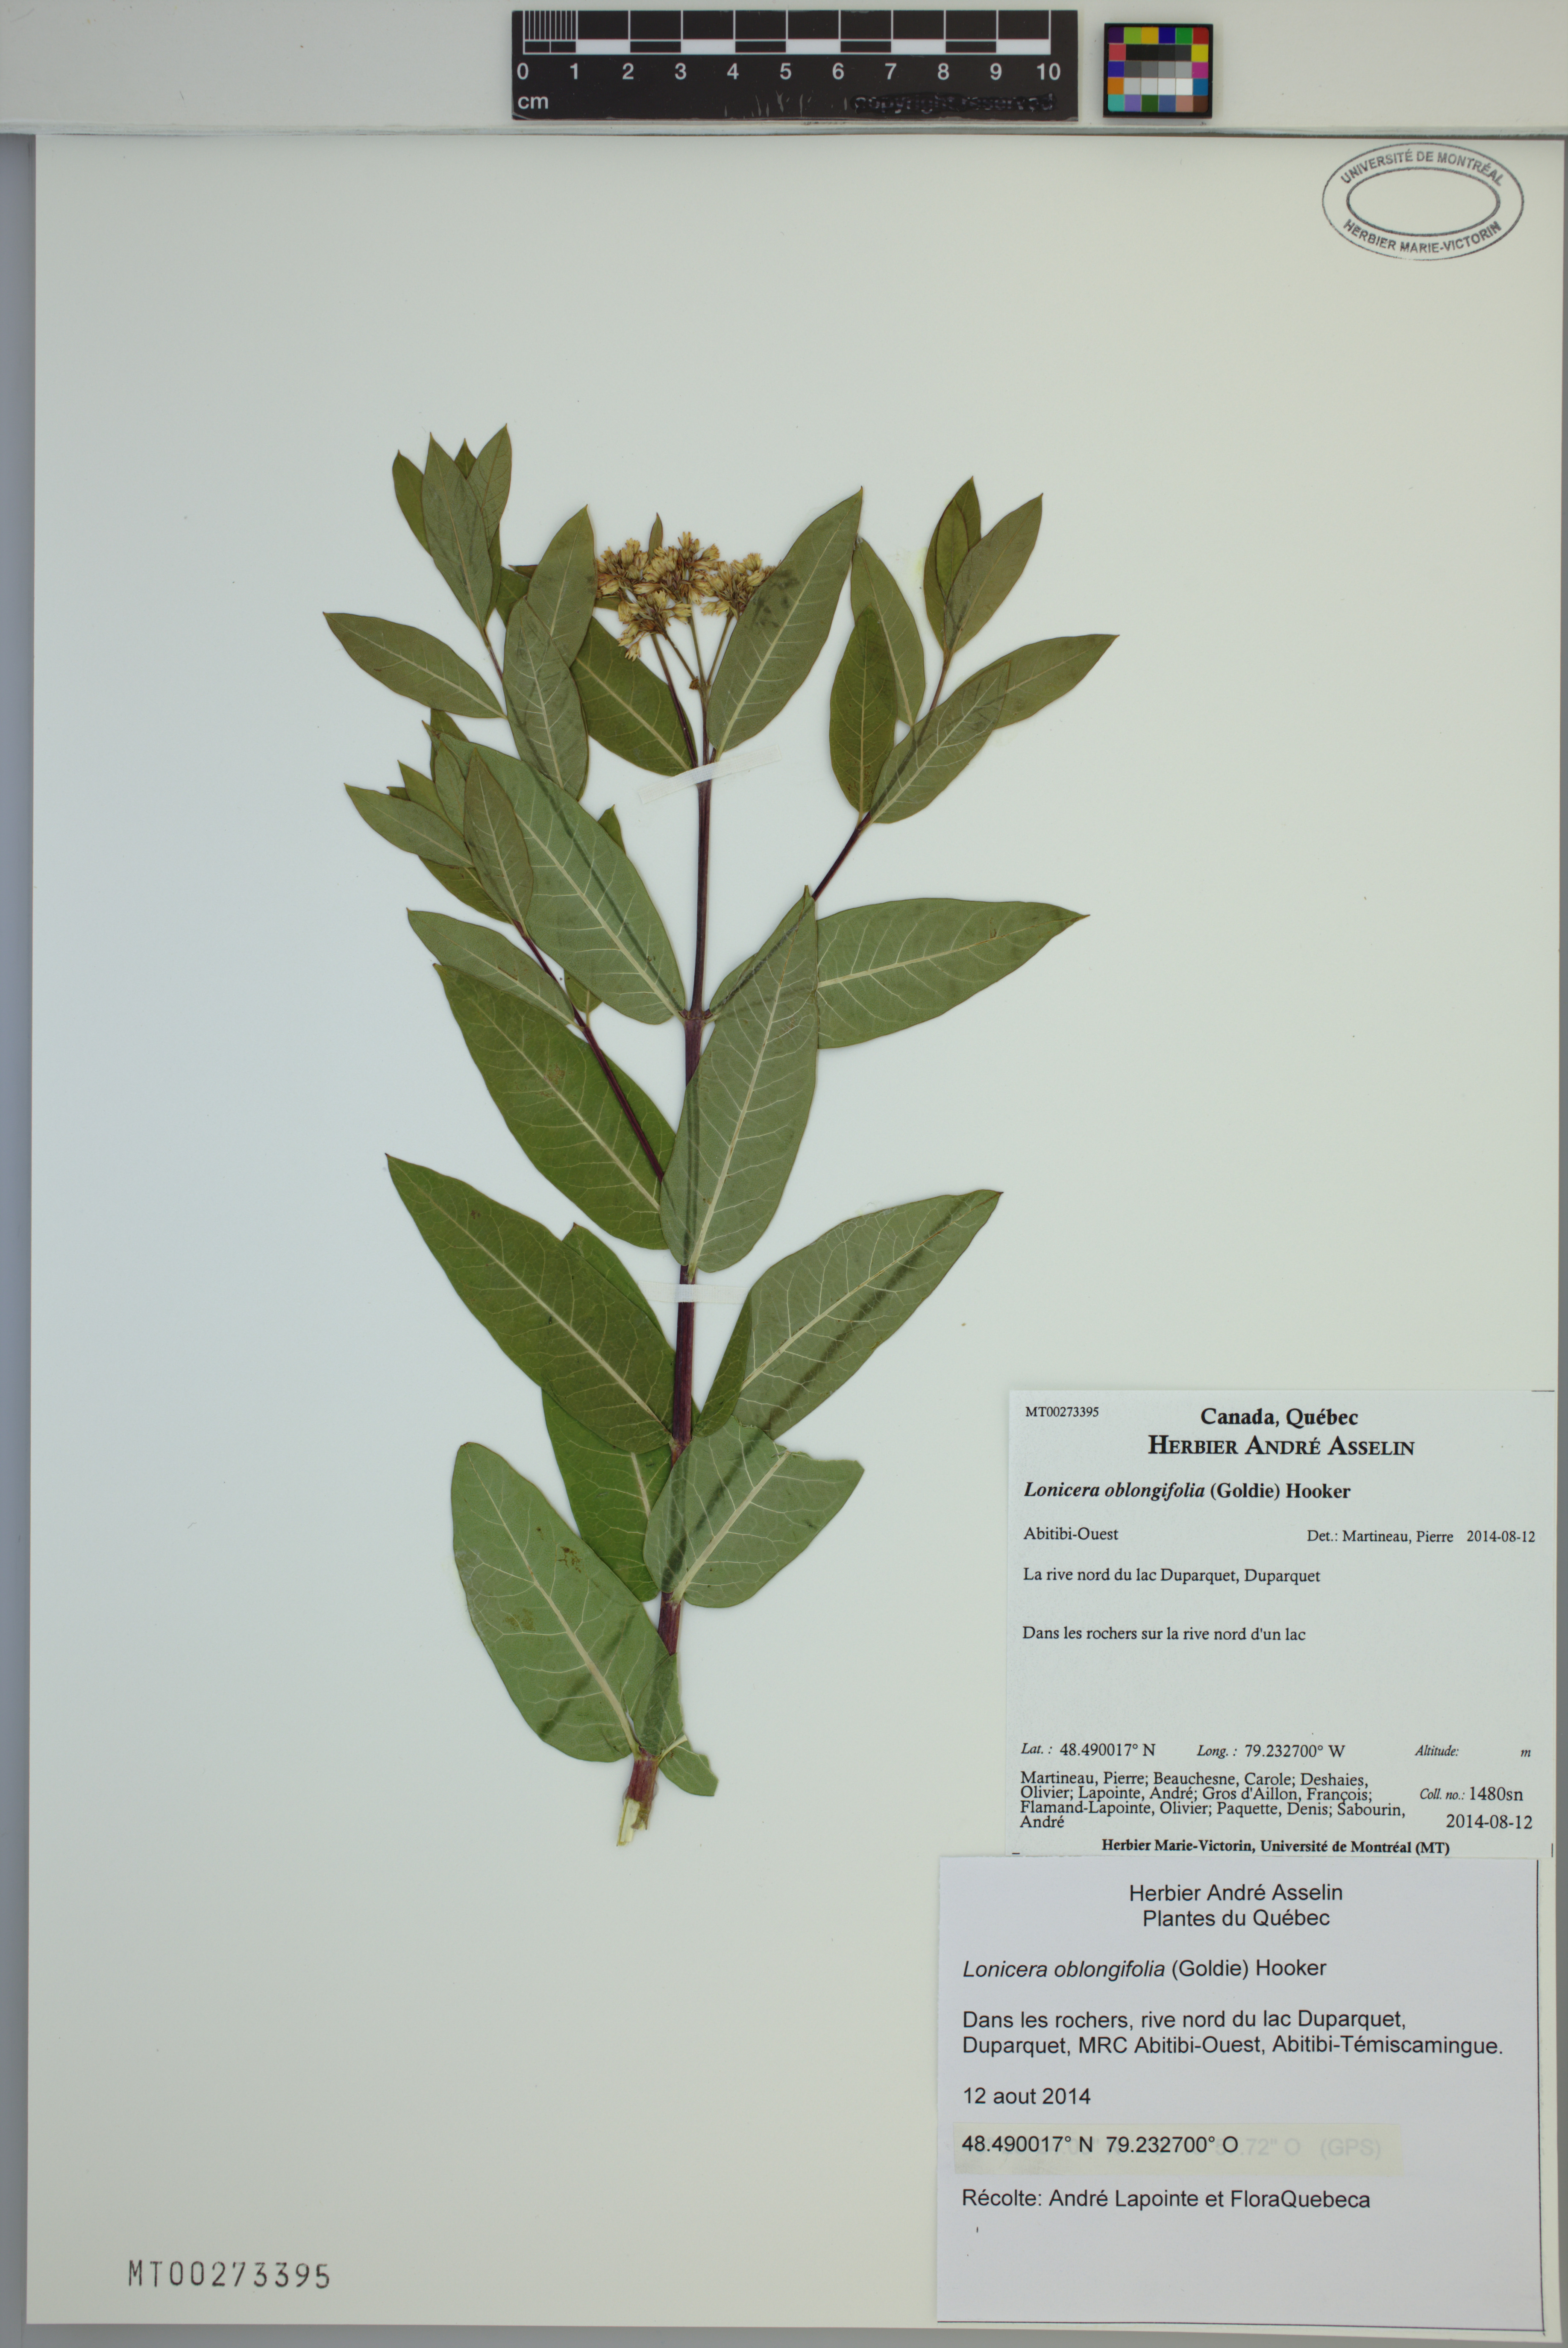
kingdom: Plantae
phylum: Tracheophyta
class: Magnoliopsida
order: Dipsacales
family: Caprifoliaceae
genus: Lonicera
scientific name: Lonicera oblongifolia
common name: Swamp fly honeysuckle
